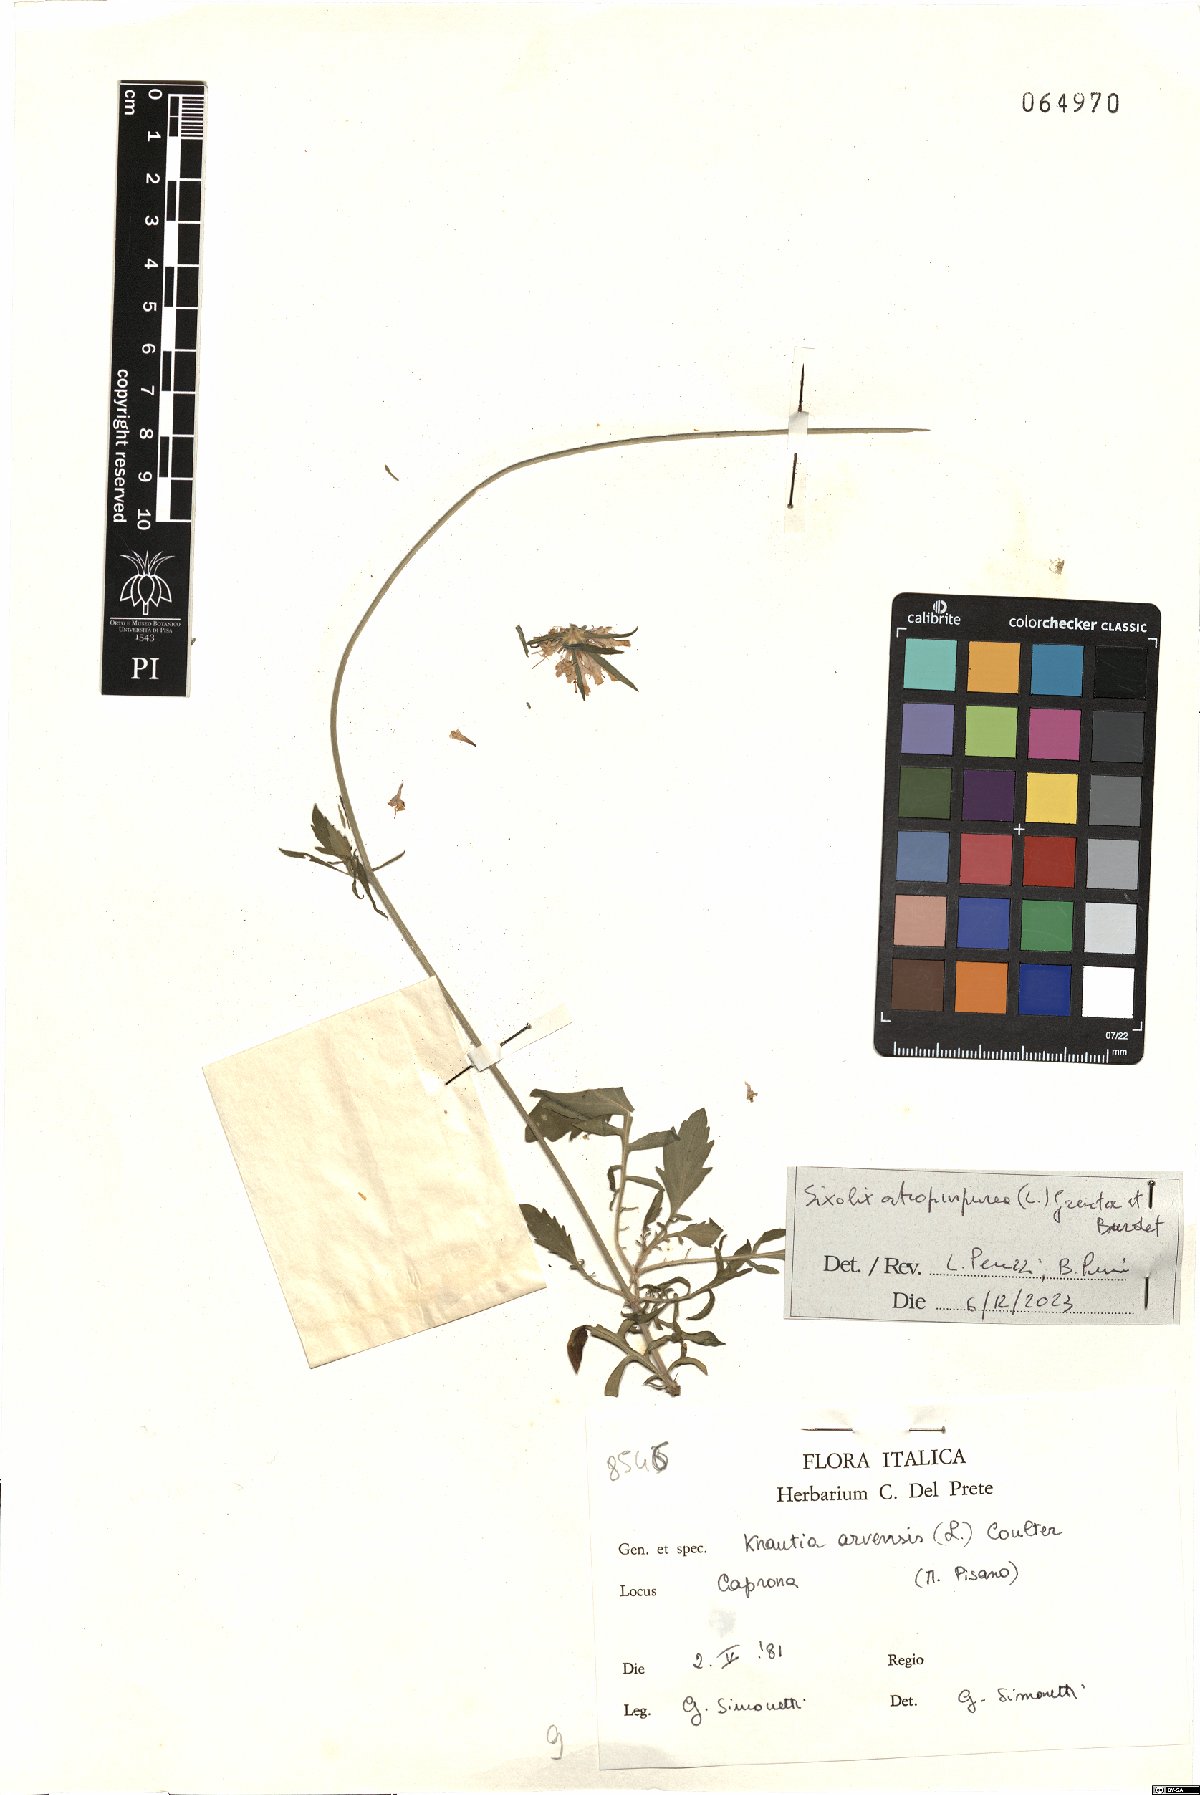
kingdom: Plantae
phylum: Tracheophyta
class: Magnoliopsida
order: Dipsacales
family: Caprifoliaceae
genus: Sixalix
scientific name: Sixalix atropurpurea
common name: Sweet scabious
